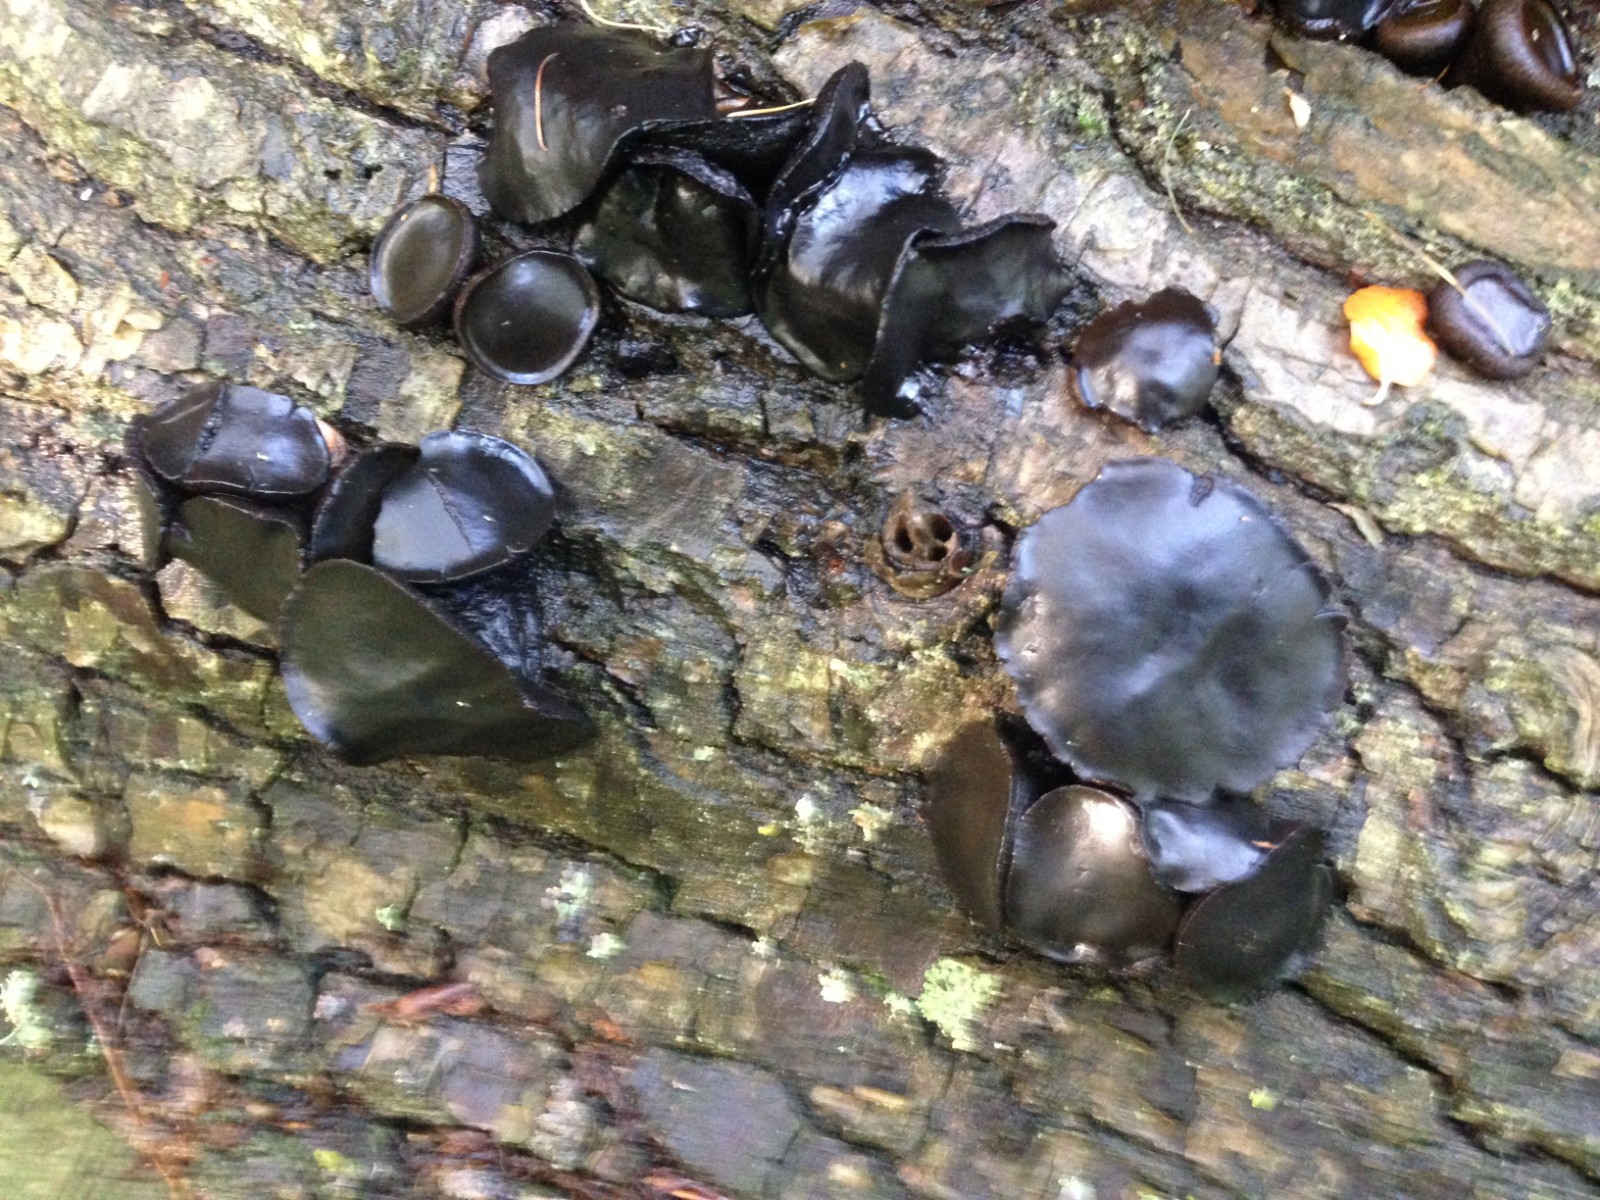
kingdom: Fungi
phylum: Ascomycota
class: Leotiomycetes
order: Phacidiales
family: Phacidiaceae
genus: Bulgaria
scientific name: Bulgaria inquinans
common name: afsmittende topsvamp
